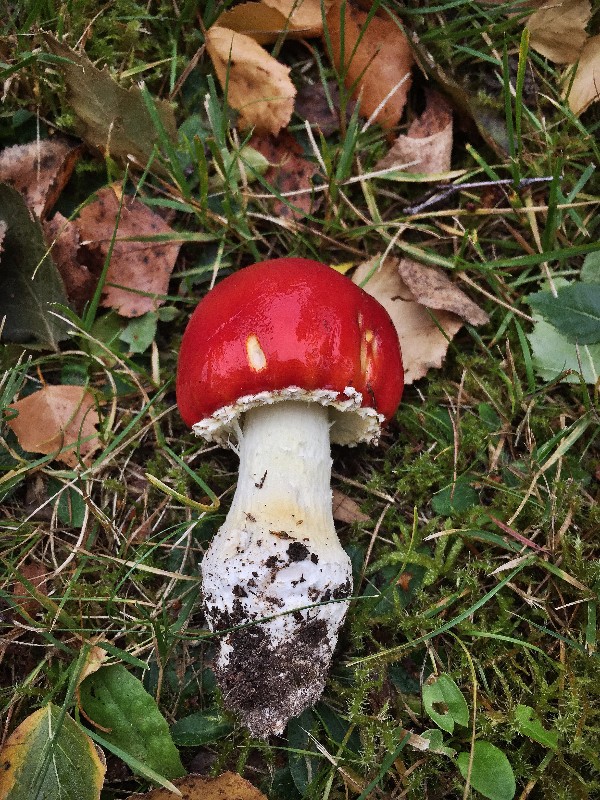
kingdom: Fungi
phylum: Basidiomycota
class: Agaricomycetes
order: Agaricales
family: Amanitaceae
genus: Amanita
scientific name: Amanita muscaria
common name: rød fluesvamp
